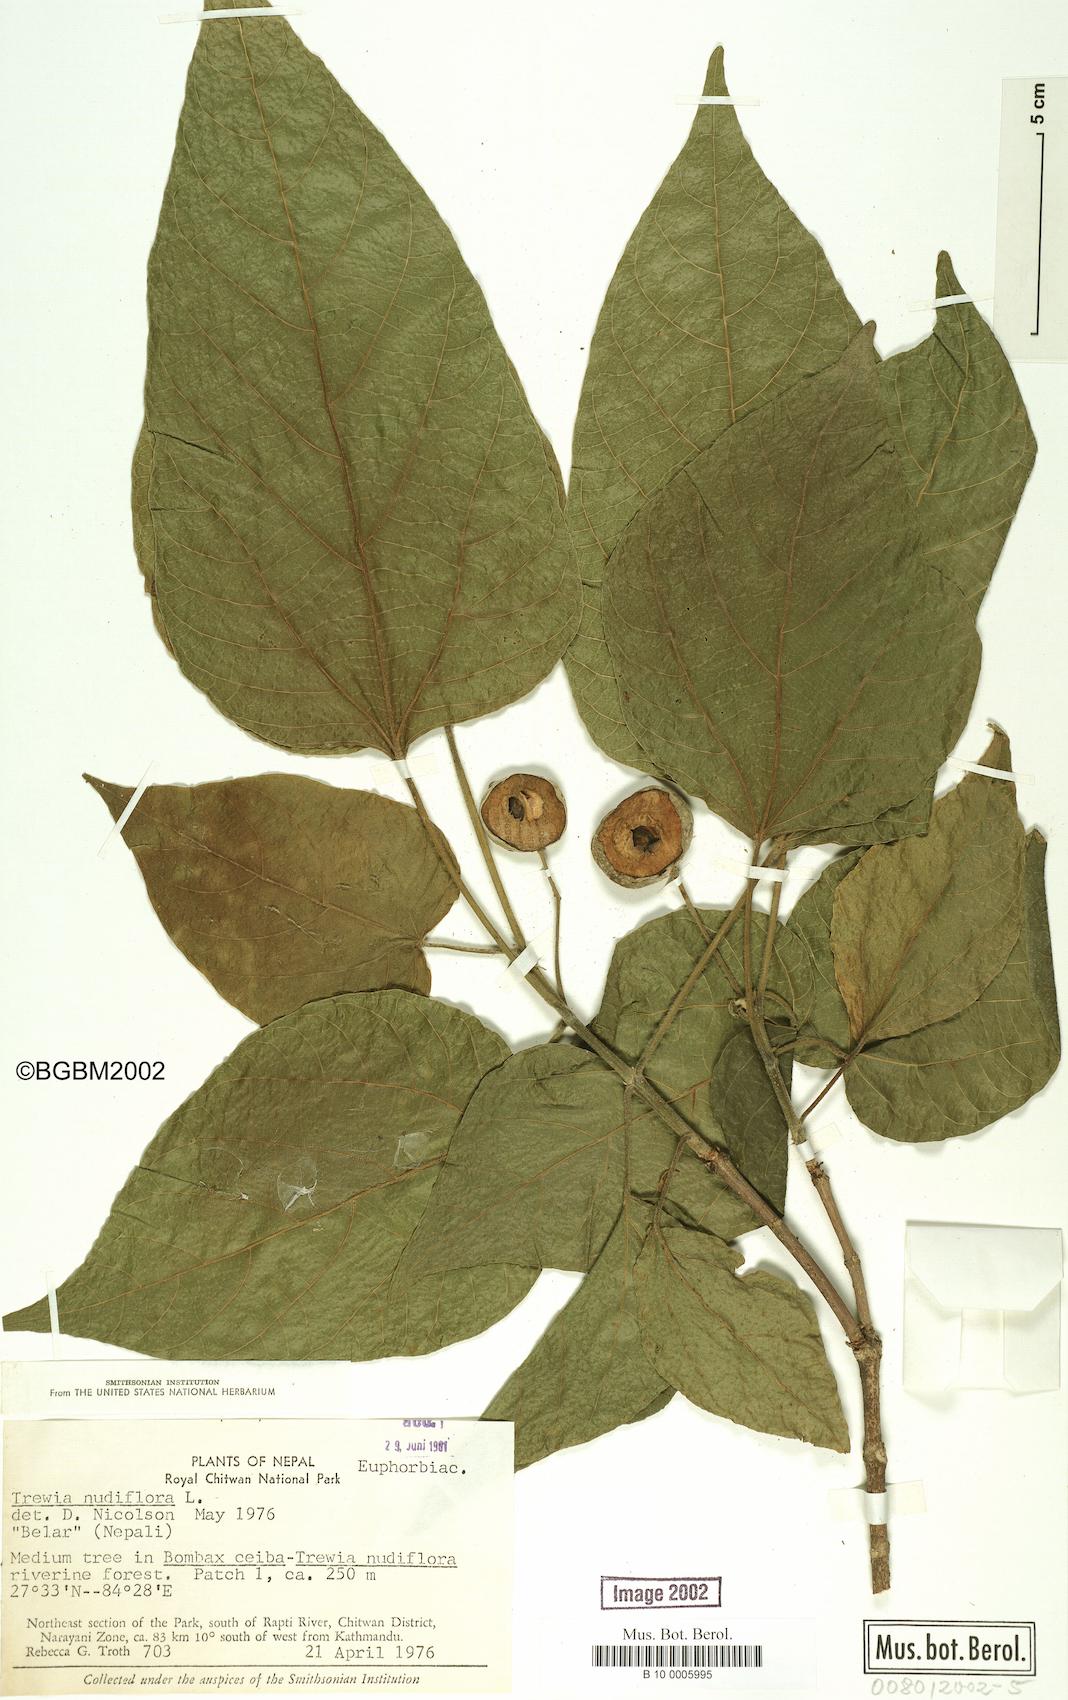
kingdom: Plantae
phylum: Tracheophyta
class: Magnoliopsida
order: Malpighiales
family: Euphorbiaceae
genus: Trewia
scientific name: Trewia nudiflora
